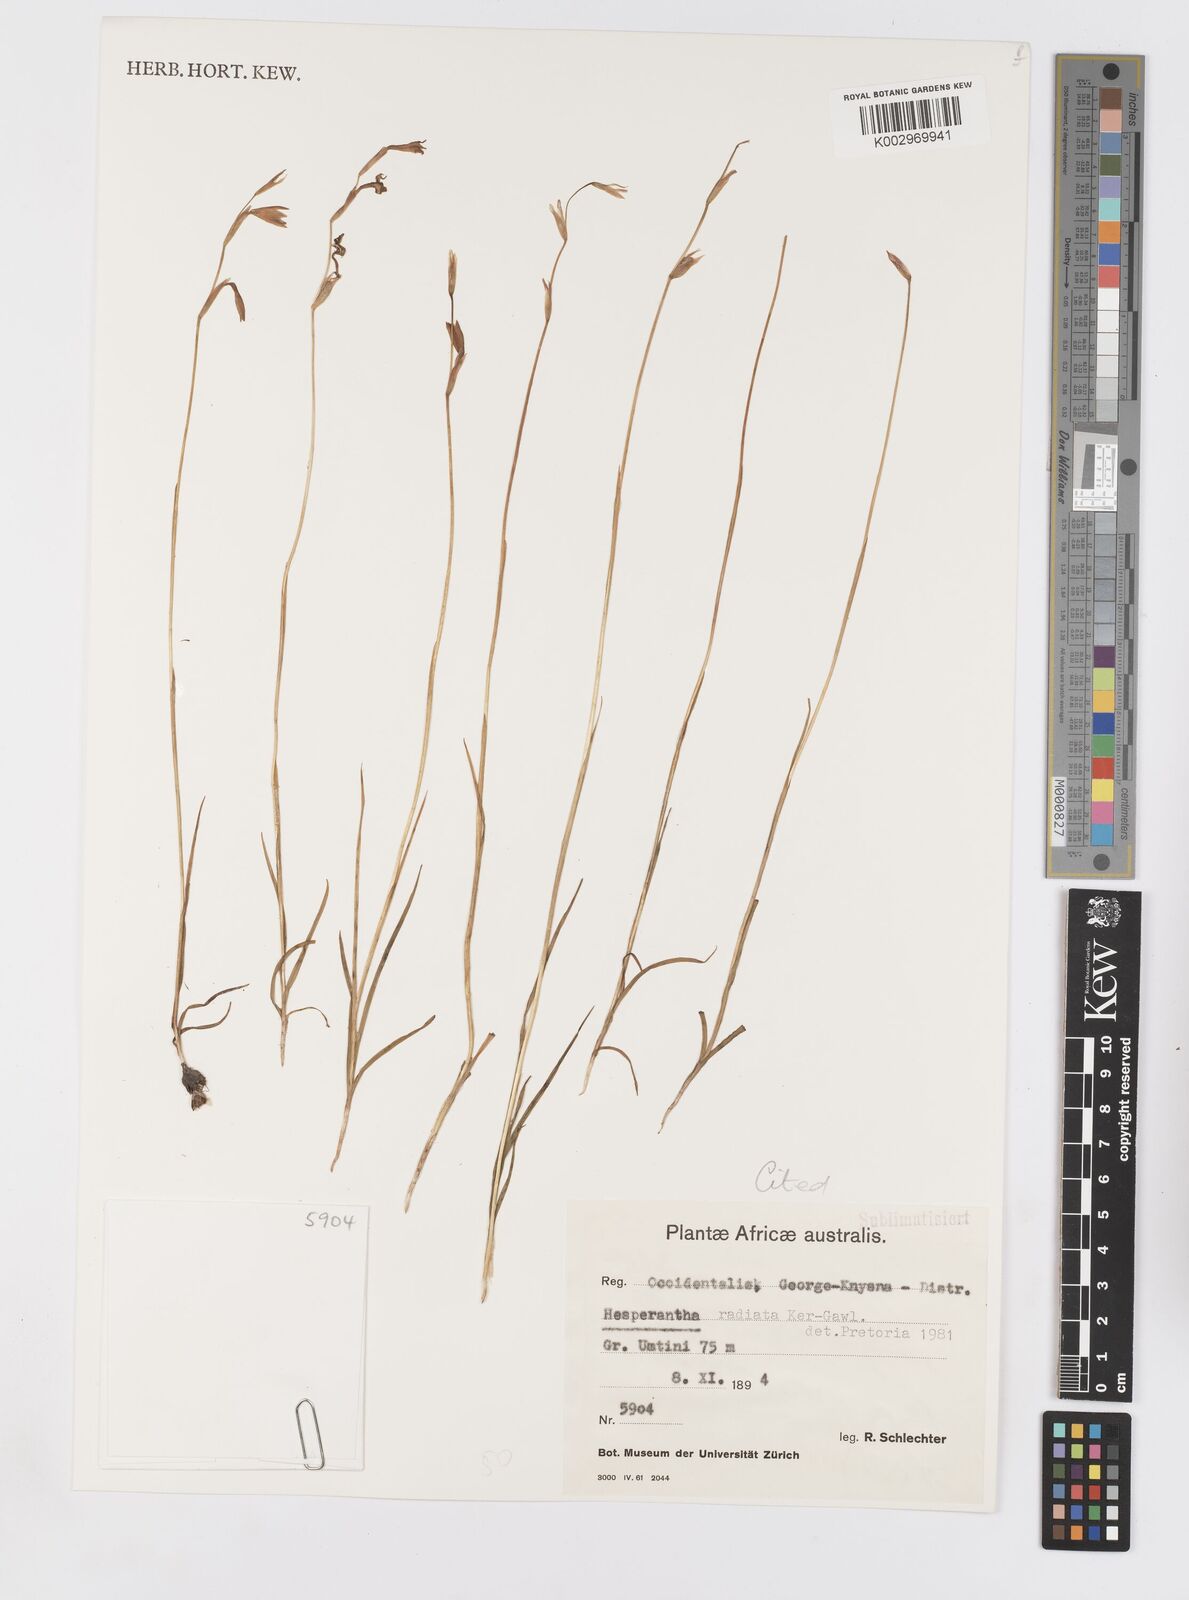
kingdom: Plantae
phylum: Tracheophyta
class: Liliopsida
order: Asparagales
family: Iridaceae
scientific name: Iridaceae
